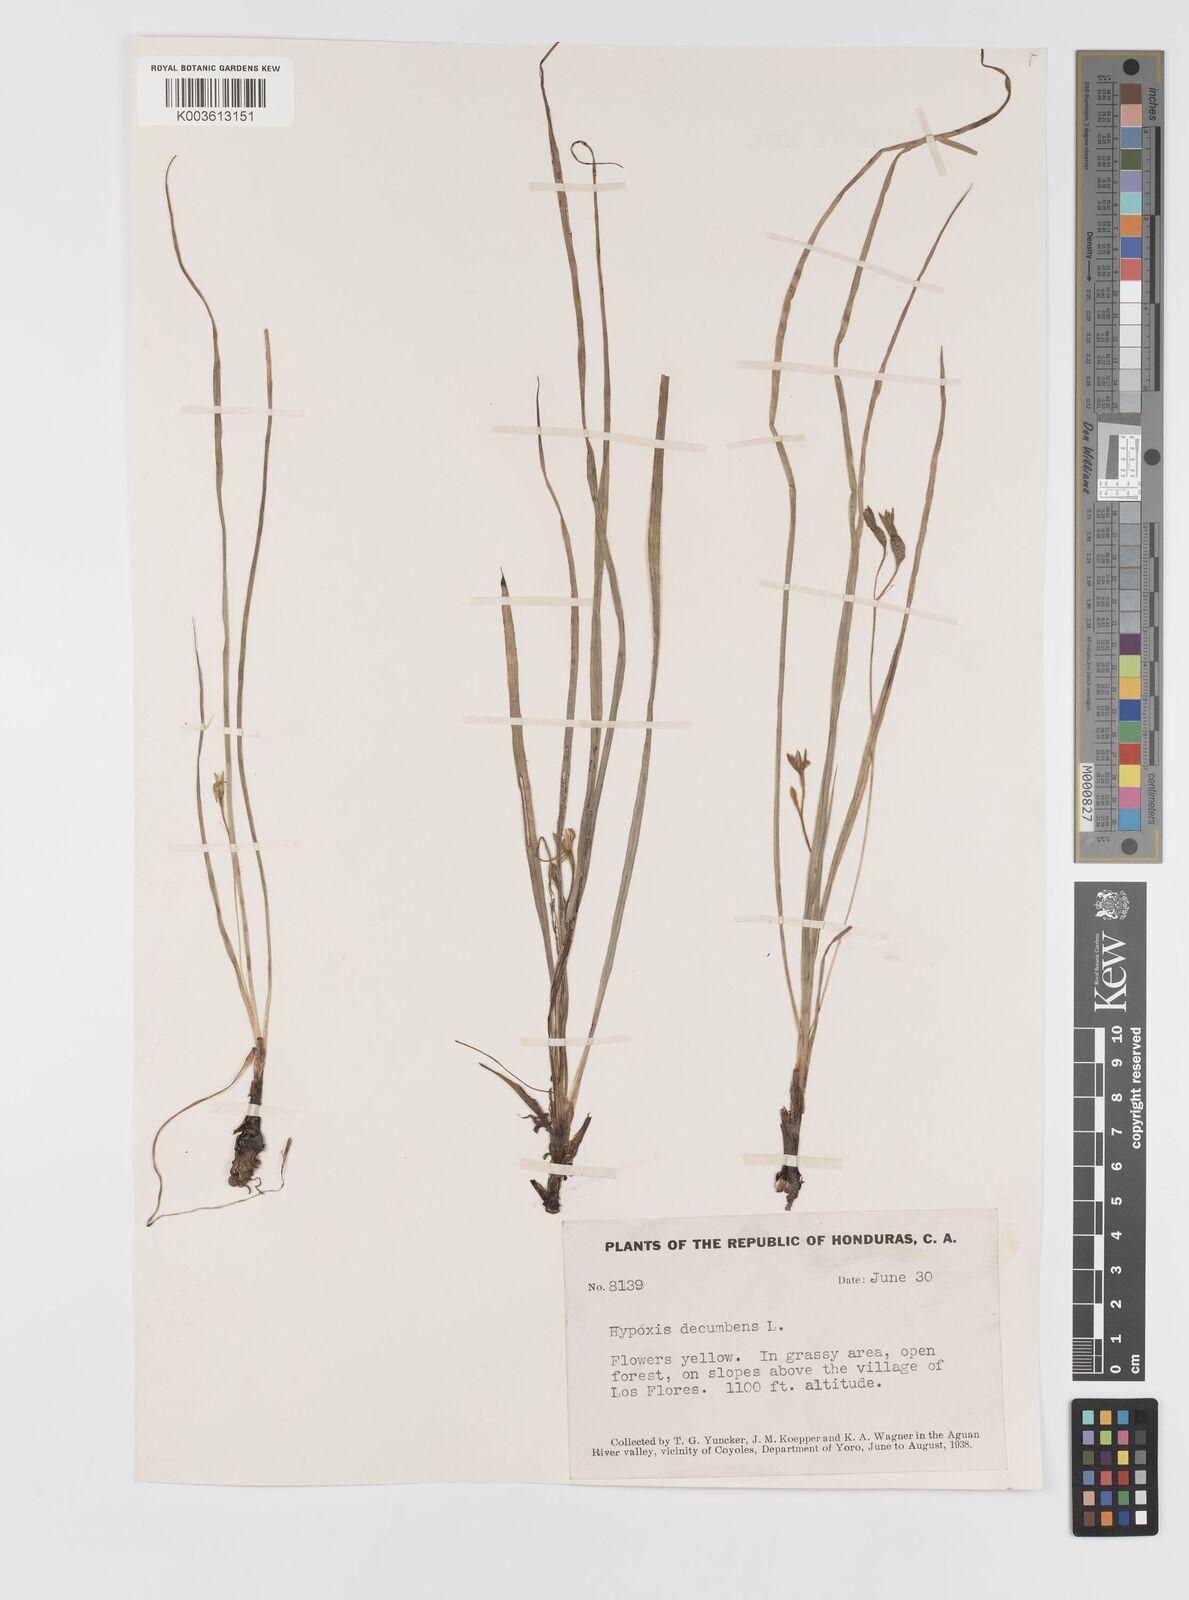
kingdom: Plantae
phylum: Tracheophyta
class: Liliopsida
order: Asparagales
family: Hypoxidaceae
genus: Hypoxis
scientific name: Hypoxis decumbens
